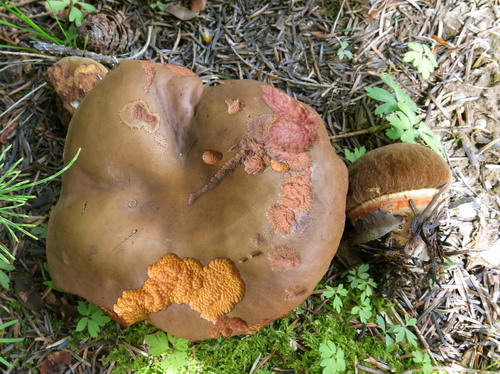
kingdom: Fungi
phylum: Basidiomycota
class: Agaricomycetes
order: Boletales
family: Boletaceae
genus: Neoboletus
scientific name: Neoboletus erythropus
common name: punktstokket indigorørhat
